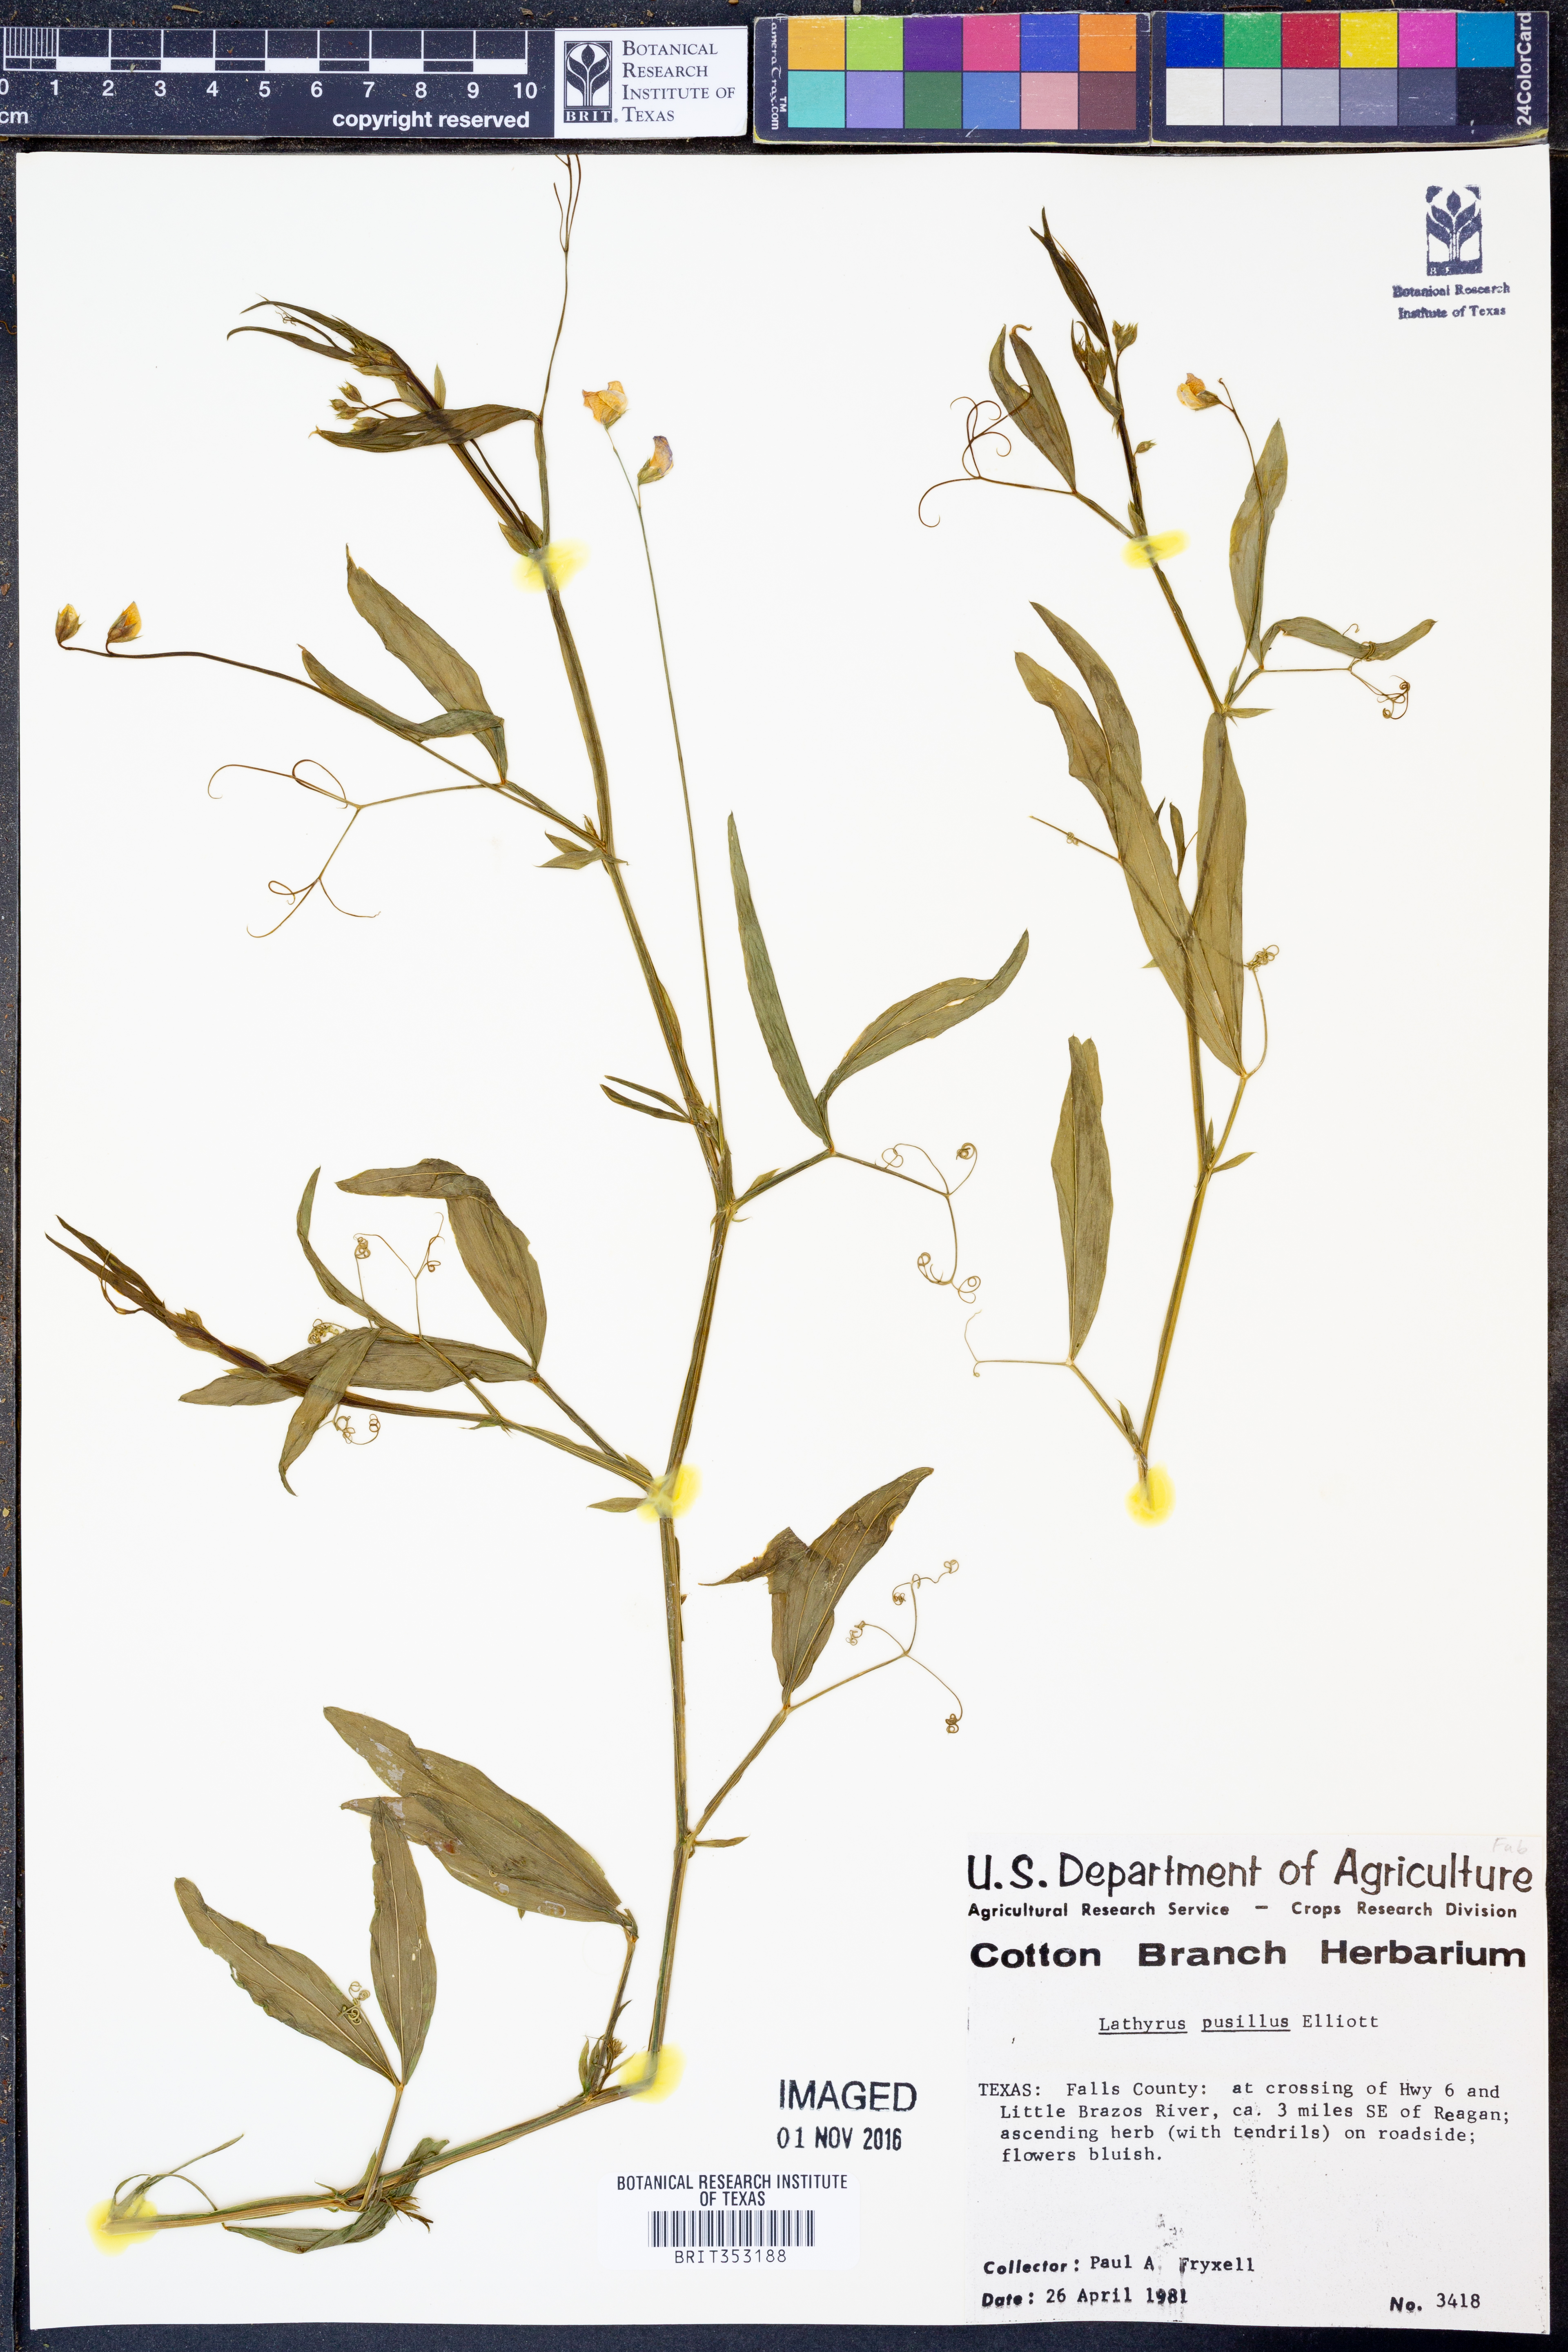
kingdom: Plantae
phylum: Tracheophyta
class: Magnoliopsida
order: Fabales
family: Fabaceae
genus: Lathyrus
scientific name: Lathyrus pusillus
